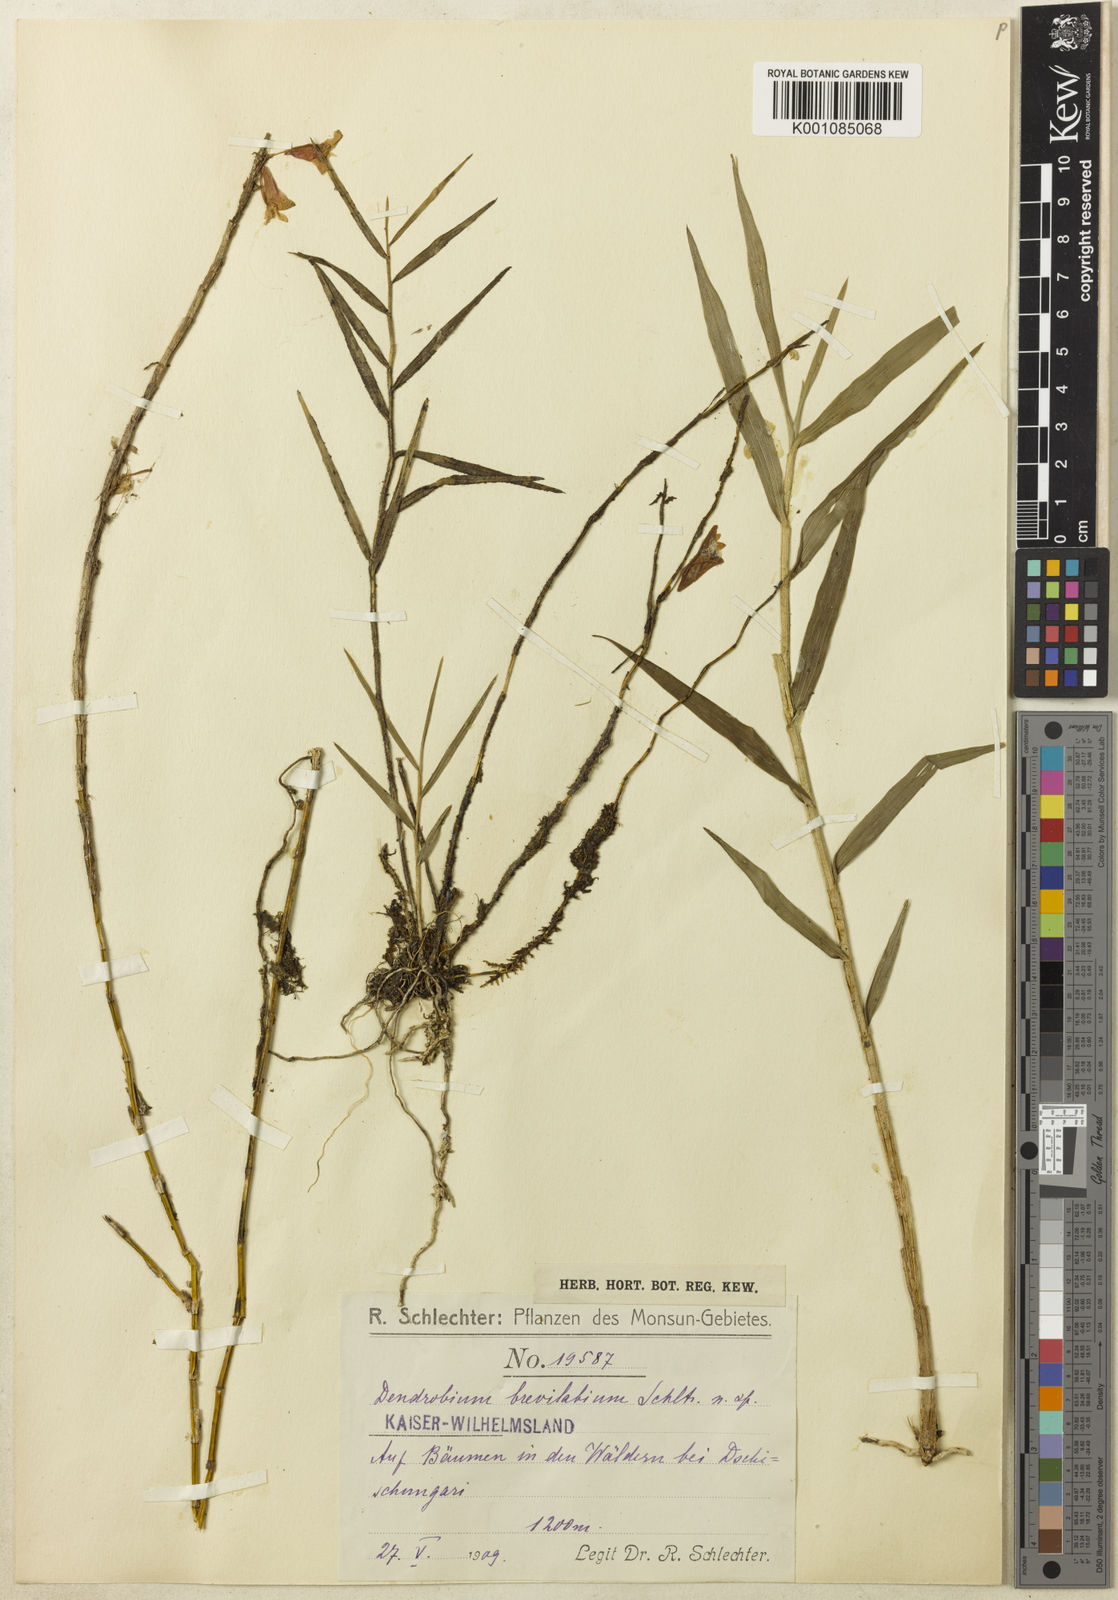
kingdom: Plantae
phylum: Tracheophyta
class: Liliopsida
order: Asparagales
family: Orchidaceae
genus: Dendrobium
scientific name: Dendrobium brevilabium
